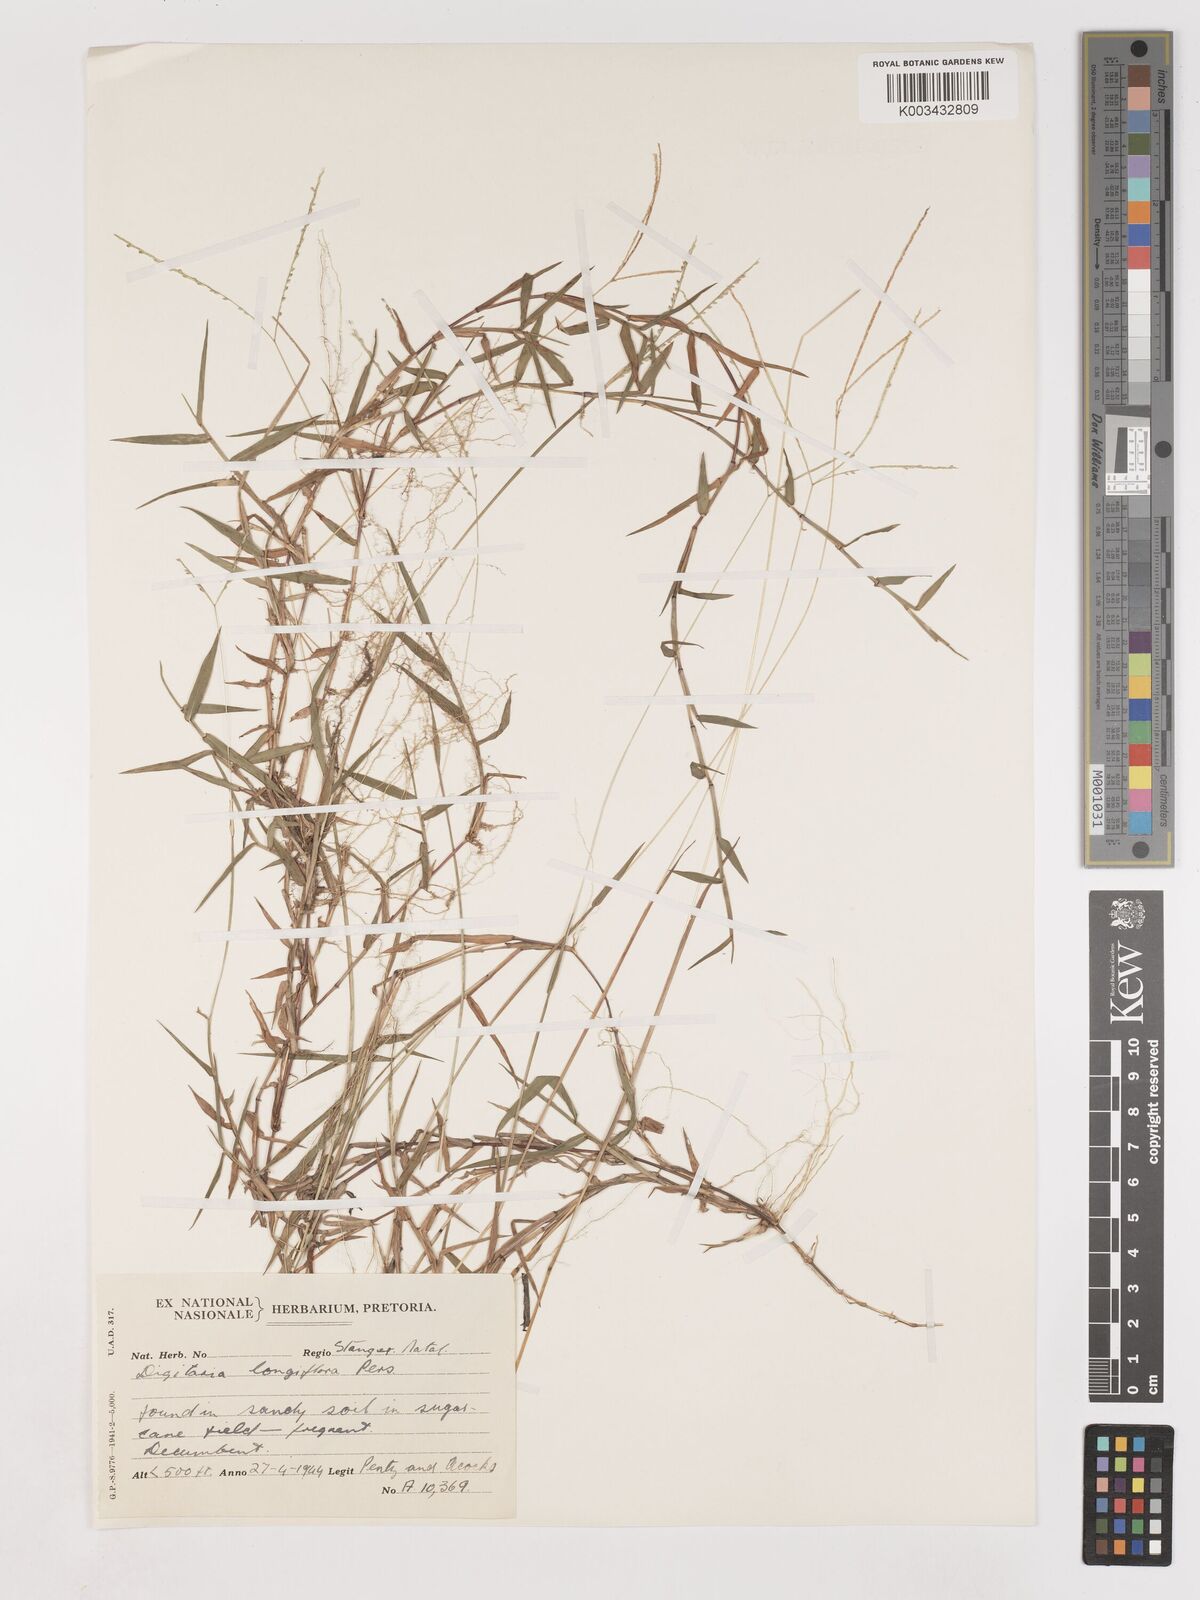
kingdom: Plantae
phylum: Tracheophyta
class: Liliopsida
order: Poales
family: Poaceae
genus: Digitaria
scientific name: Digitaria longiflora
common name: Wire crabgrass
